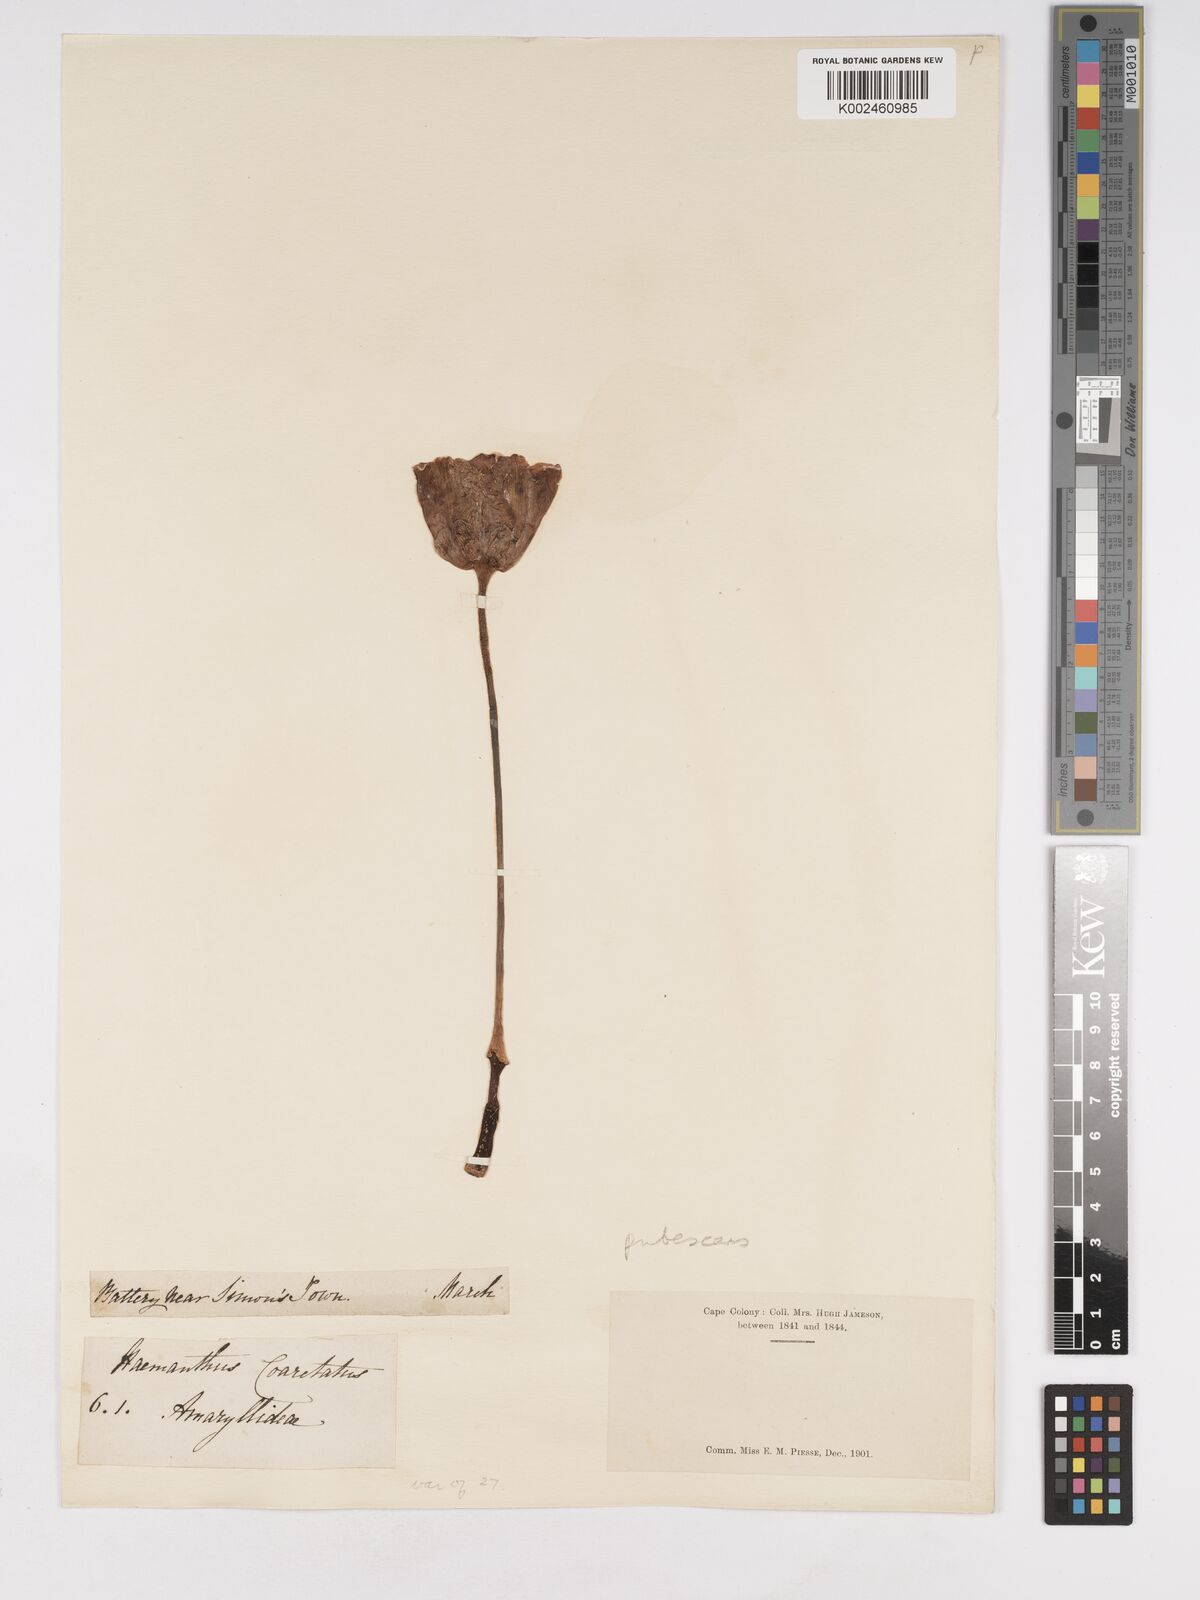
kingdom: Plantae
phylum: Tracheophyta
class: Liliopsida
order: Asparagales
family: Amaryllidaceae
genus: Haemanthus
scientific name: Haemanthus pubescens
